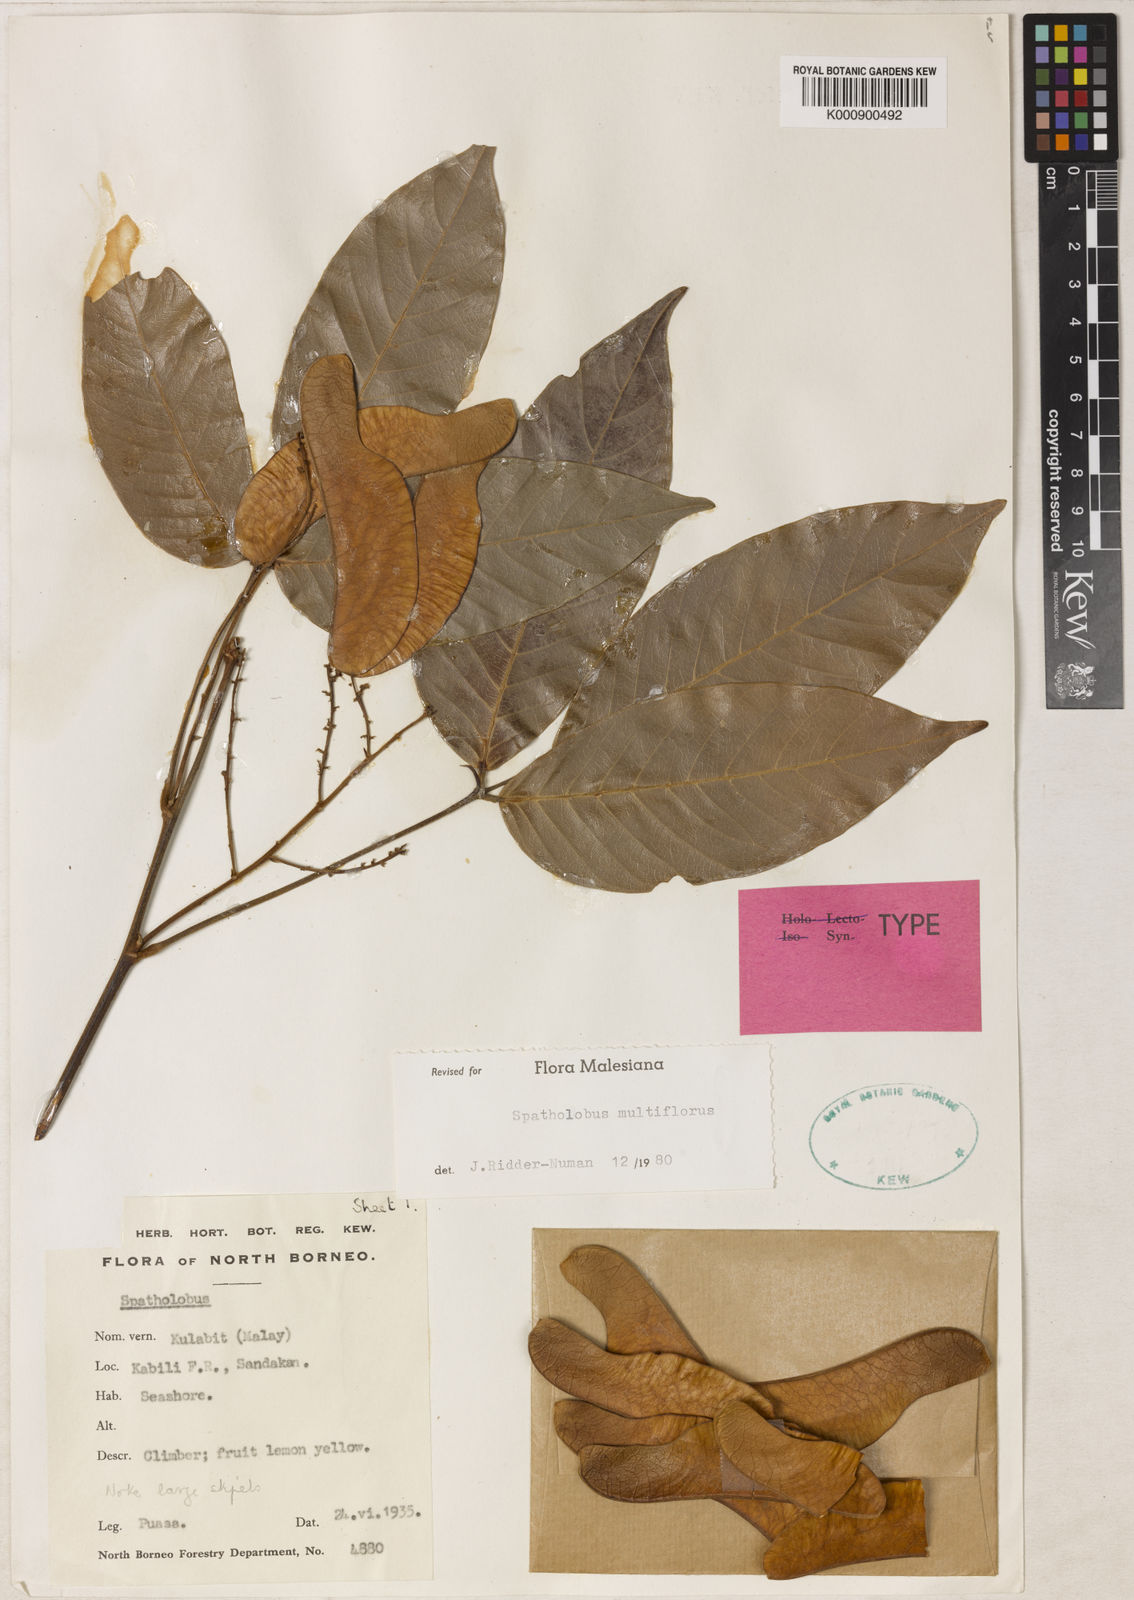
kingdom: Plantae
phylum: Tracheophyta
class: Magnoliopsida
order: Fabales
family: Fabaceae
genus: Spatholobus
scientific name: Spatholobus multiflorus
